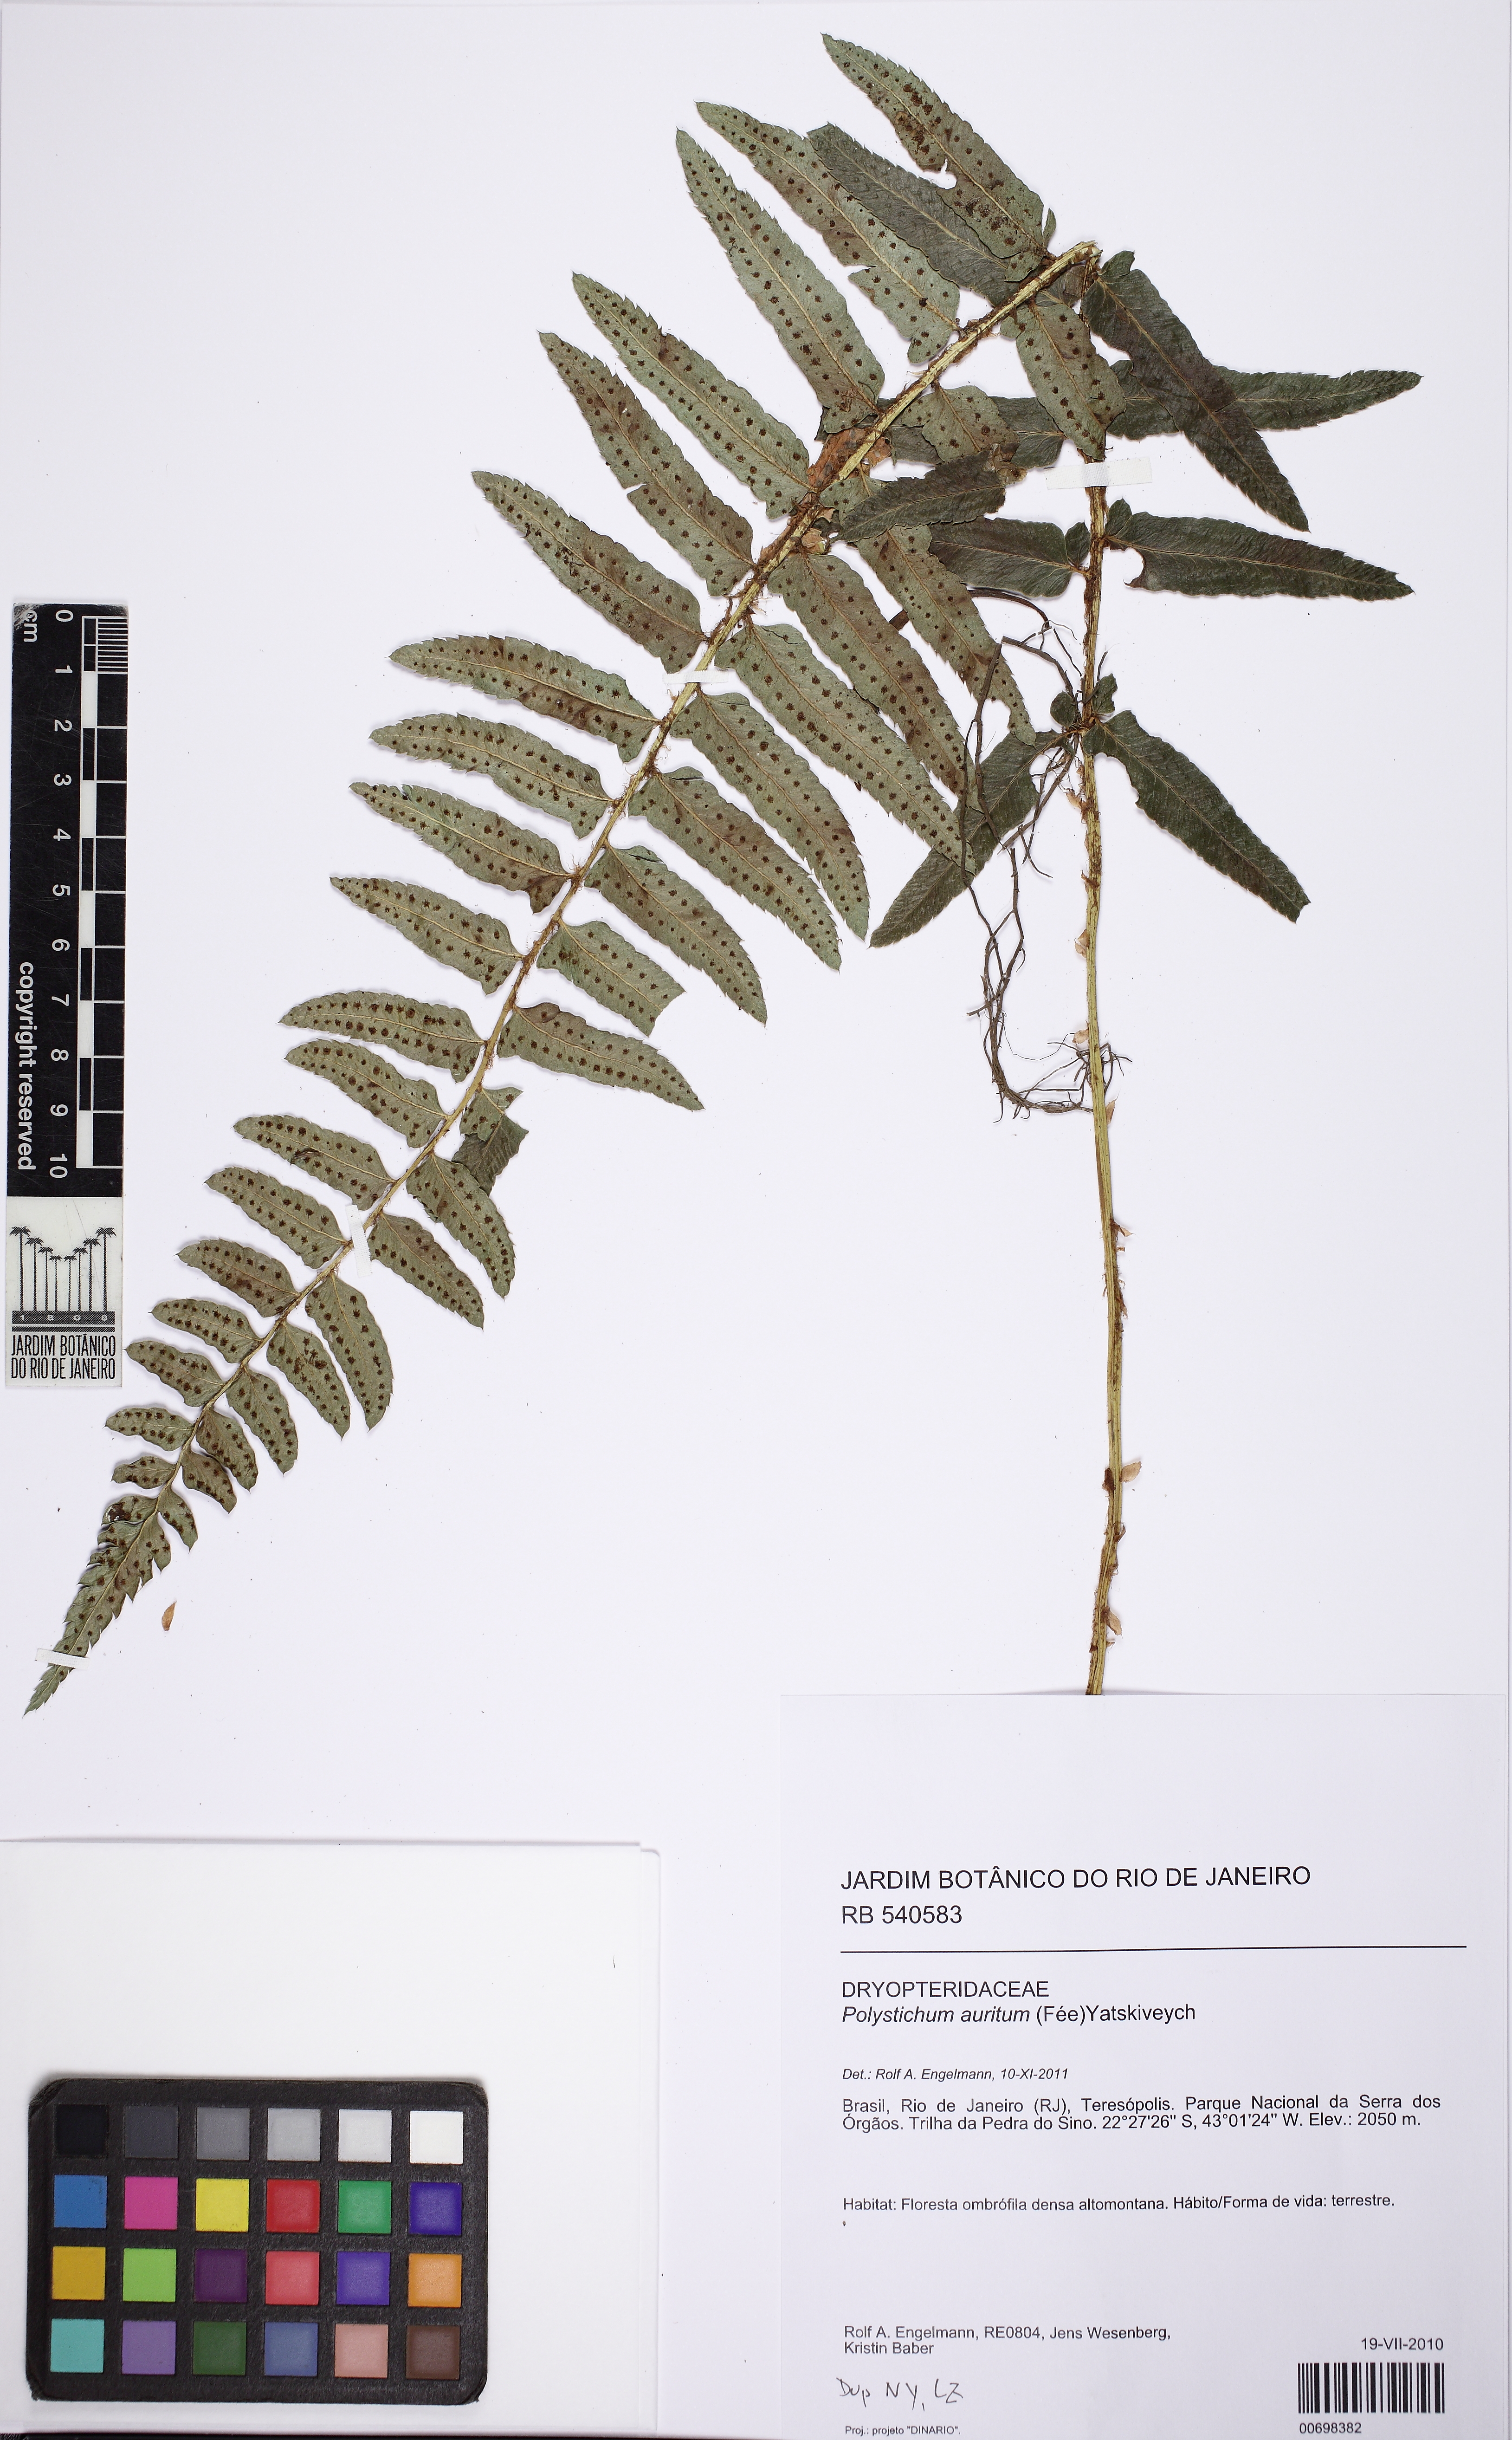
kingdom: Plantae
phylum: Tracheophyta
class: Polypodiopsida
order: Polypodiales
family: Dryopteridaceae
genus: Phanerophlebia
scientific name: Phanerophlebia aurita
